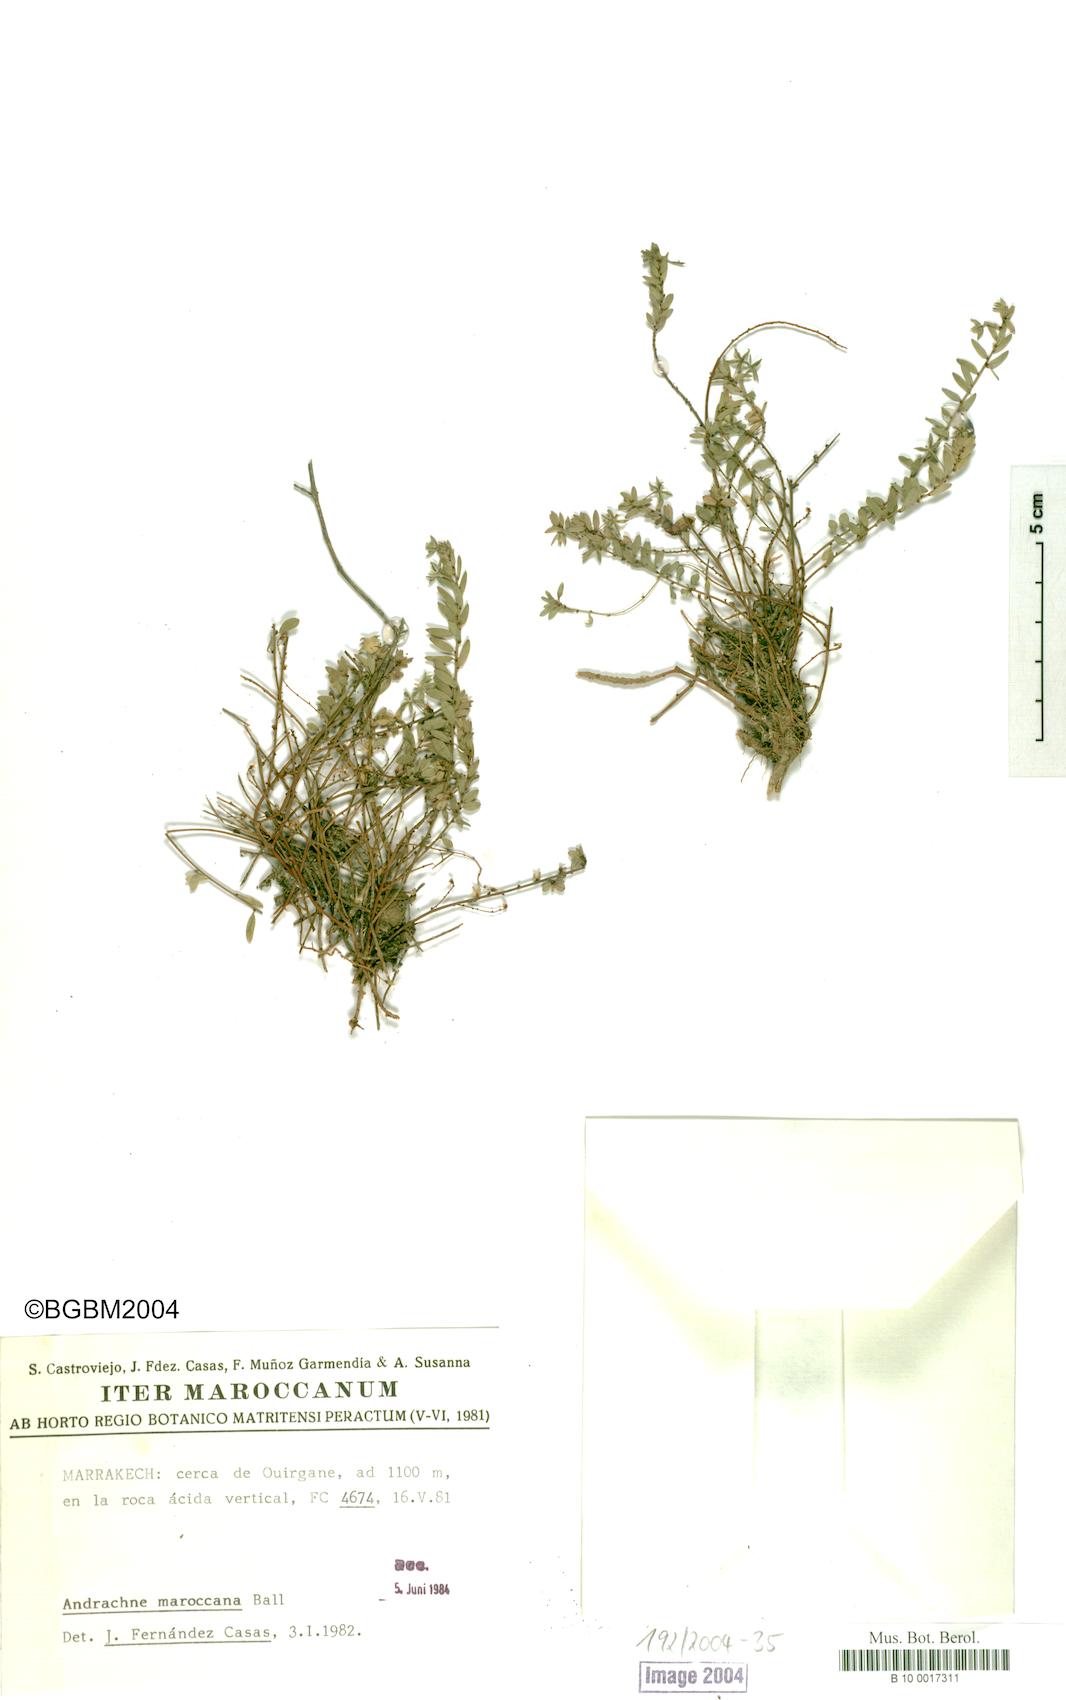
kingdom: Plantae
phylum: Tracheophyta
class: Magnoliopsida
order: Malpighiales
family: Phyllanthaceae
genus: Andrachne
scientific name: Andrachne maroccana
